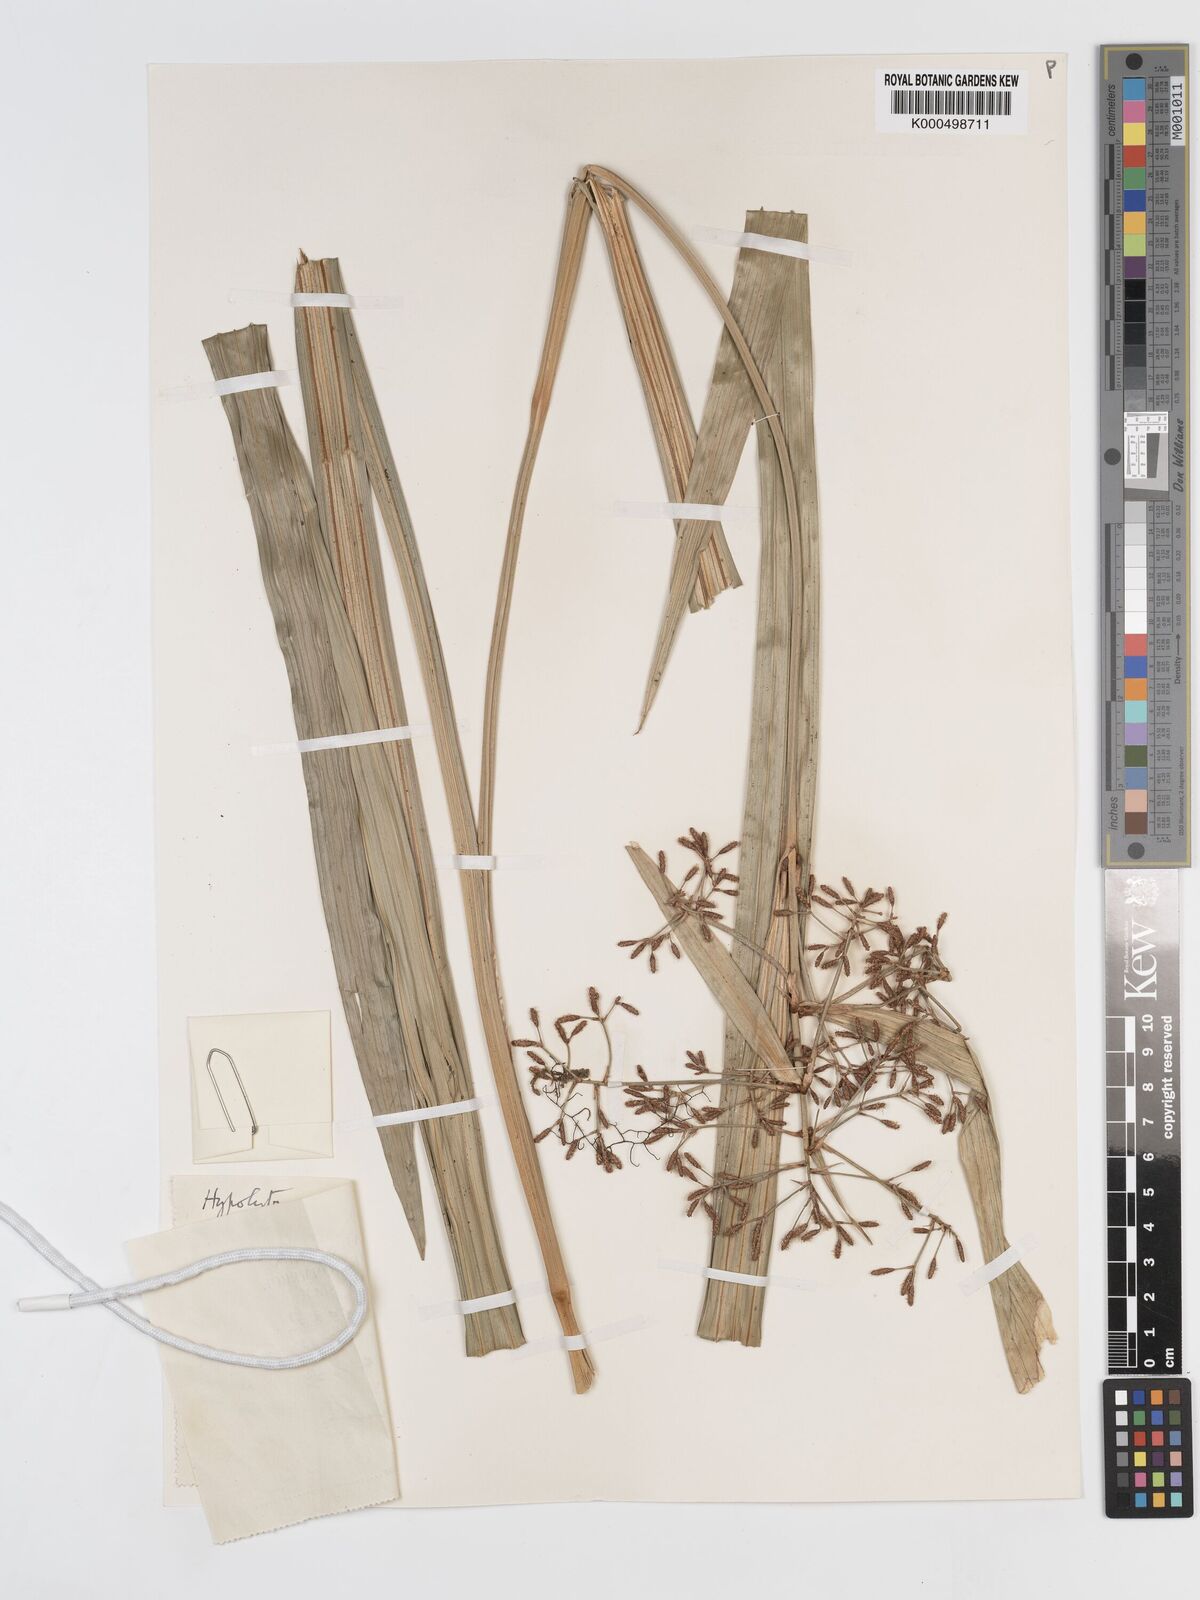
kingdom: Plantae
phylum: Tracheophyta
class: Liliopsida
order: Poales
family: Cyperaceae
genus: Hypolytrum
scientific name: Hypolytrum nemorum
